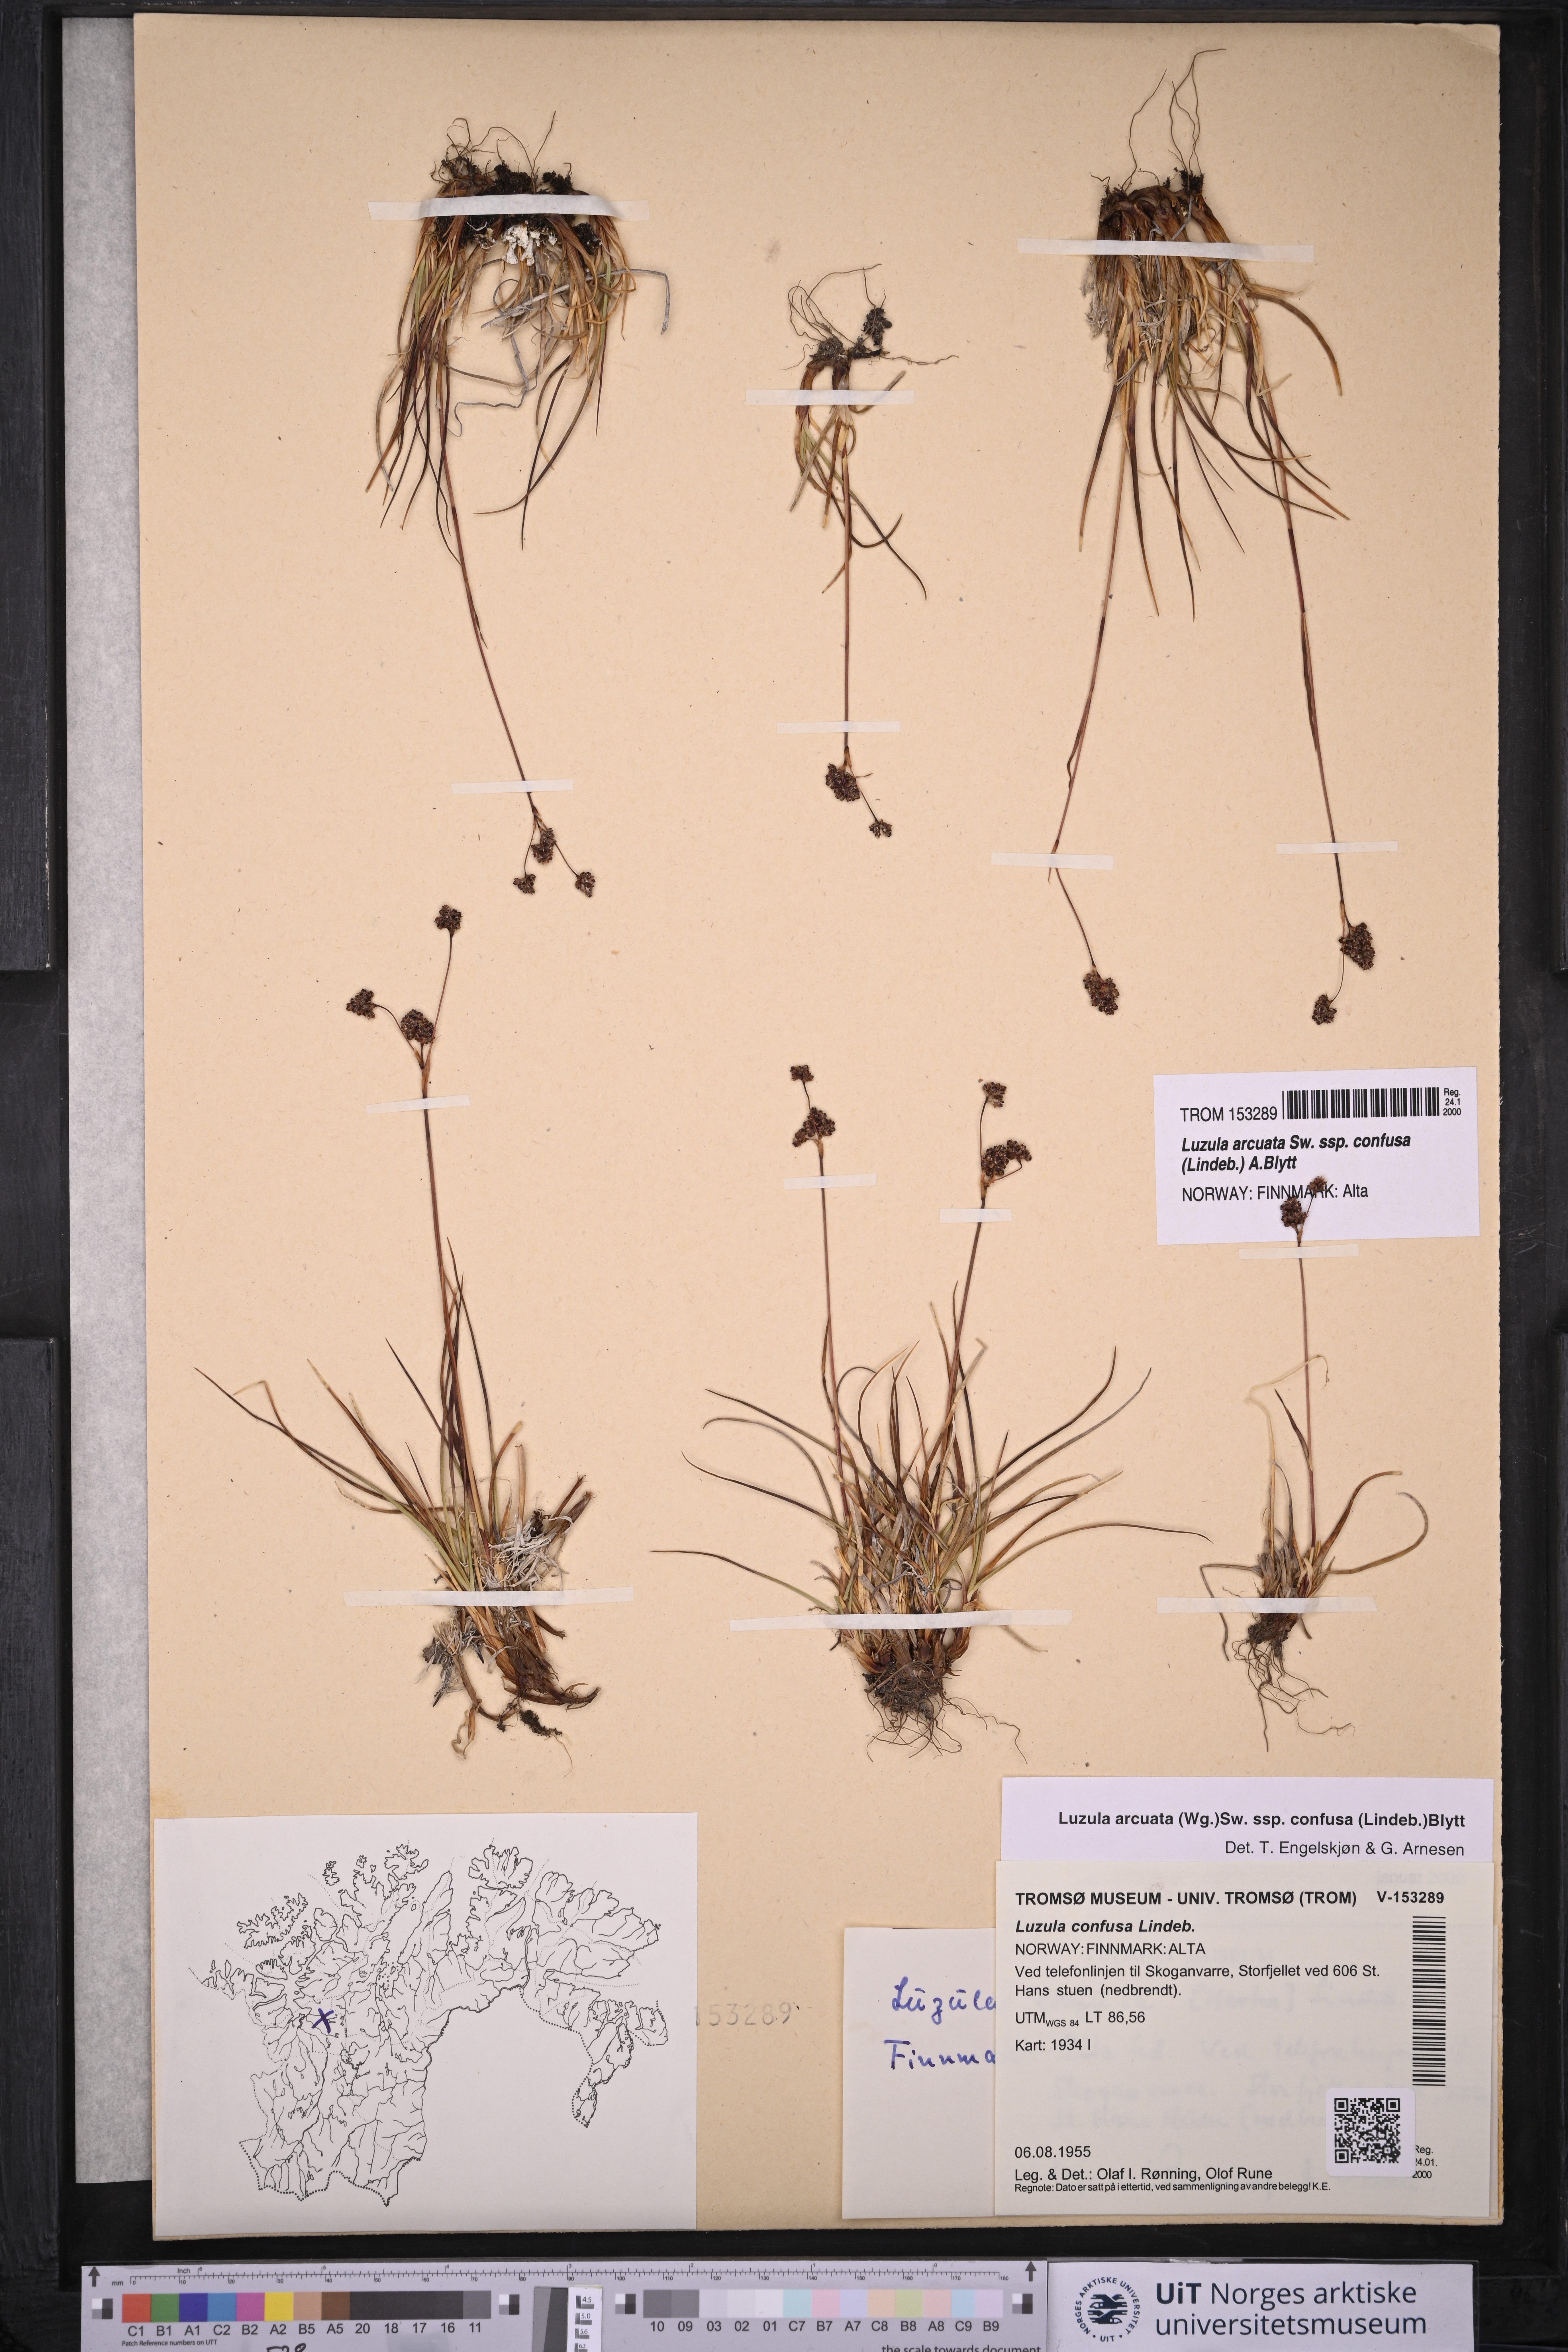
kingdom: Plantae
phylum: Tracheophyta
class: Liliopsida
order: Poales
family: Juncaceae
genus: Luzula
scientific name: Luzula confusa
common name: Northern wood rush
